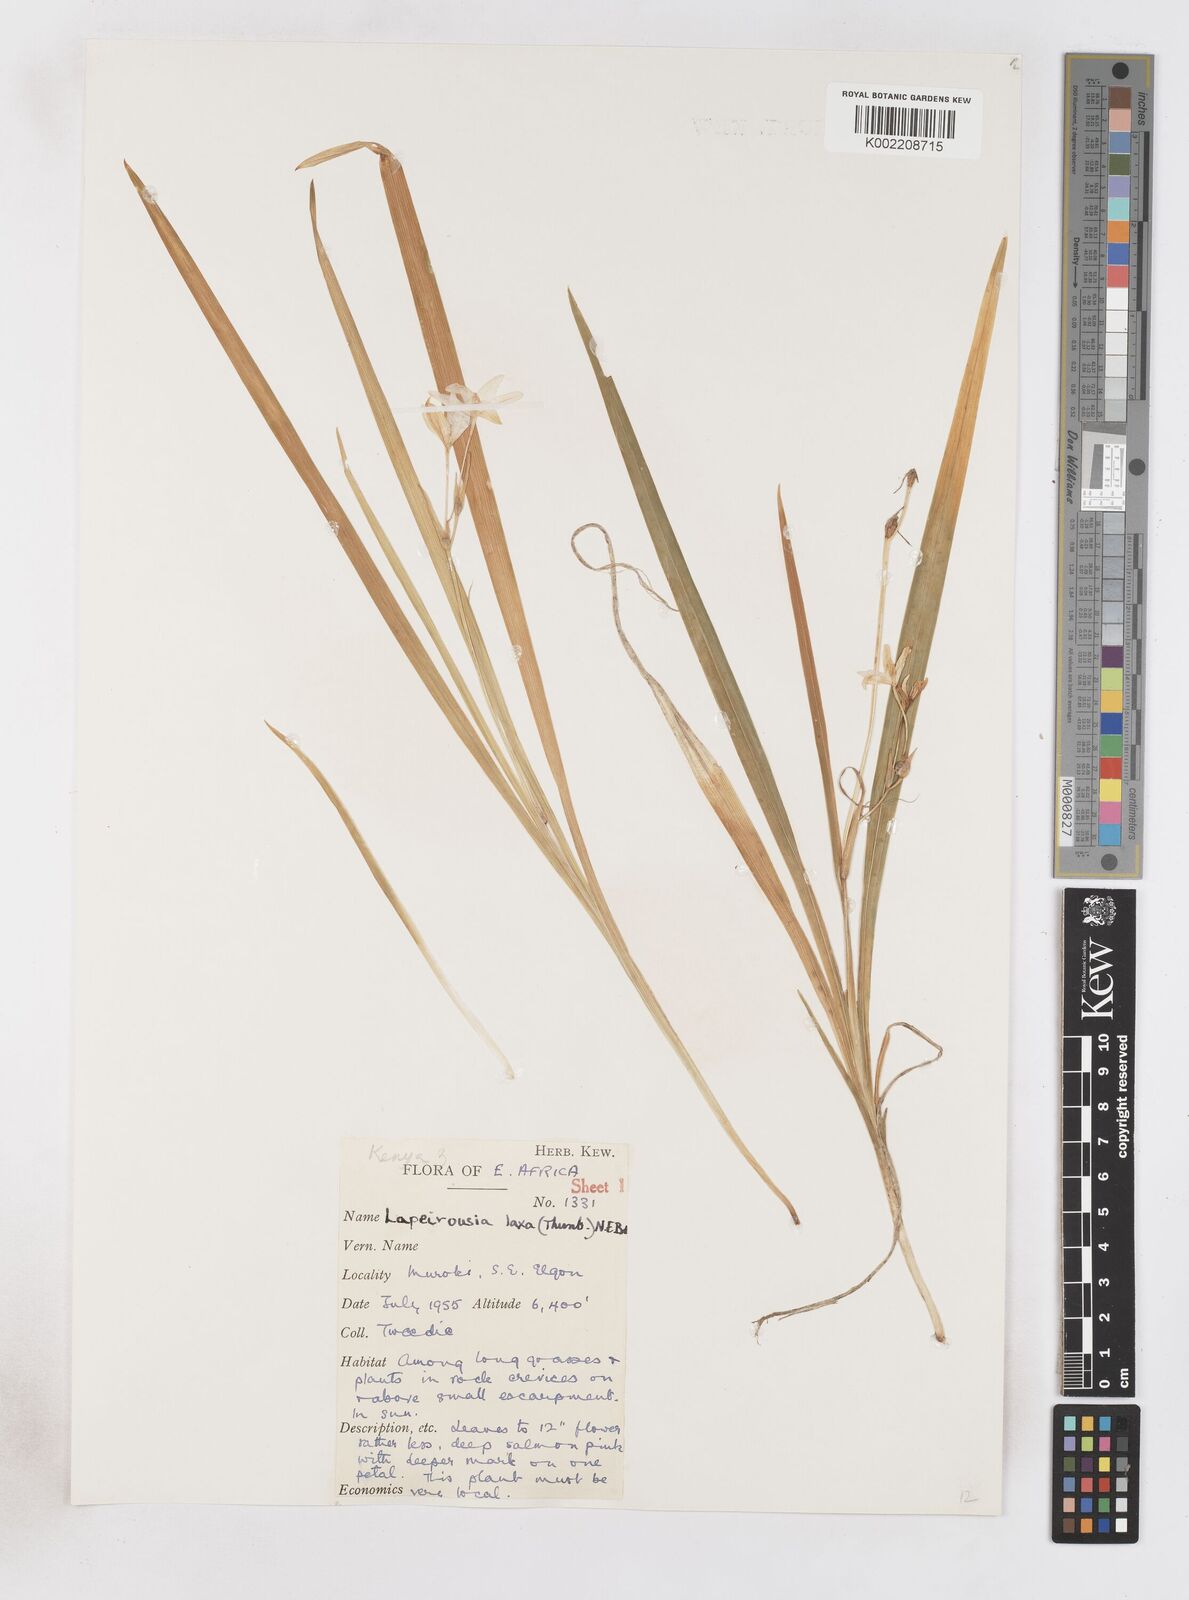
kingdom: Plantae
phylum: Tracheophyta
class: Liliopsida
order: Asparagales
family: Iridaceae
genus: Freesia
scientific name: Freesia laxa
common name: False freesia
